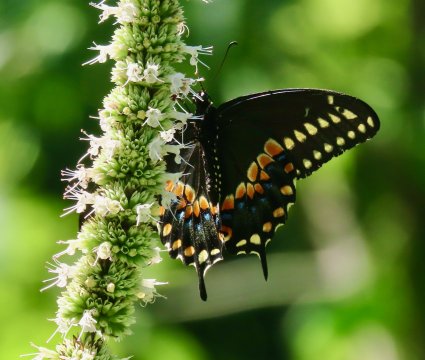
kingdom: Animalia
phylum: Arthropoda
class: Insecta
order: Lepidoptera
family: Papilionidae
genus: Papilio
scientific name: Papilio polyxenes
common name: Black Swallowtail
